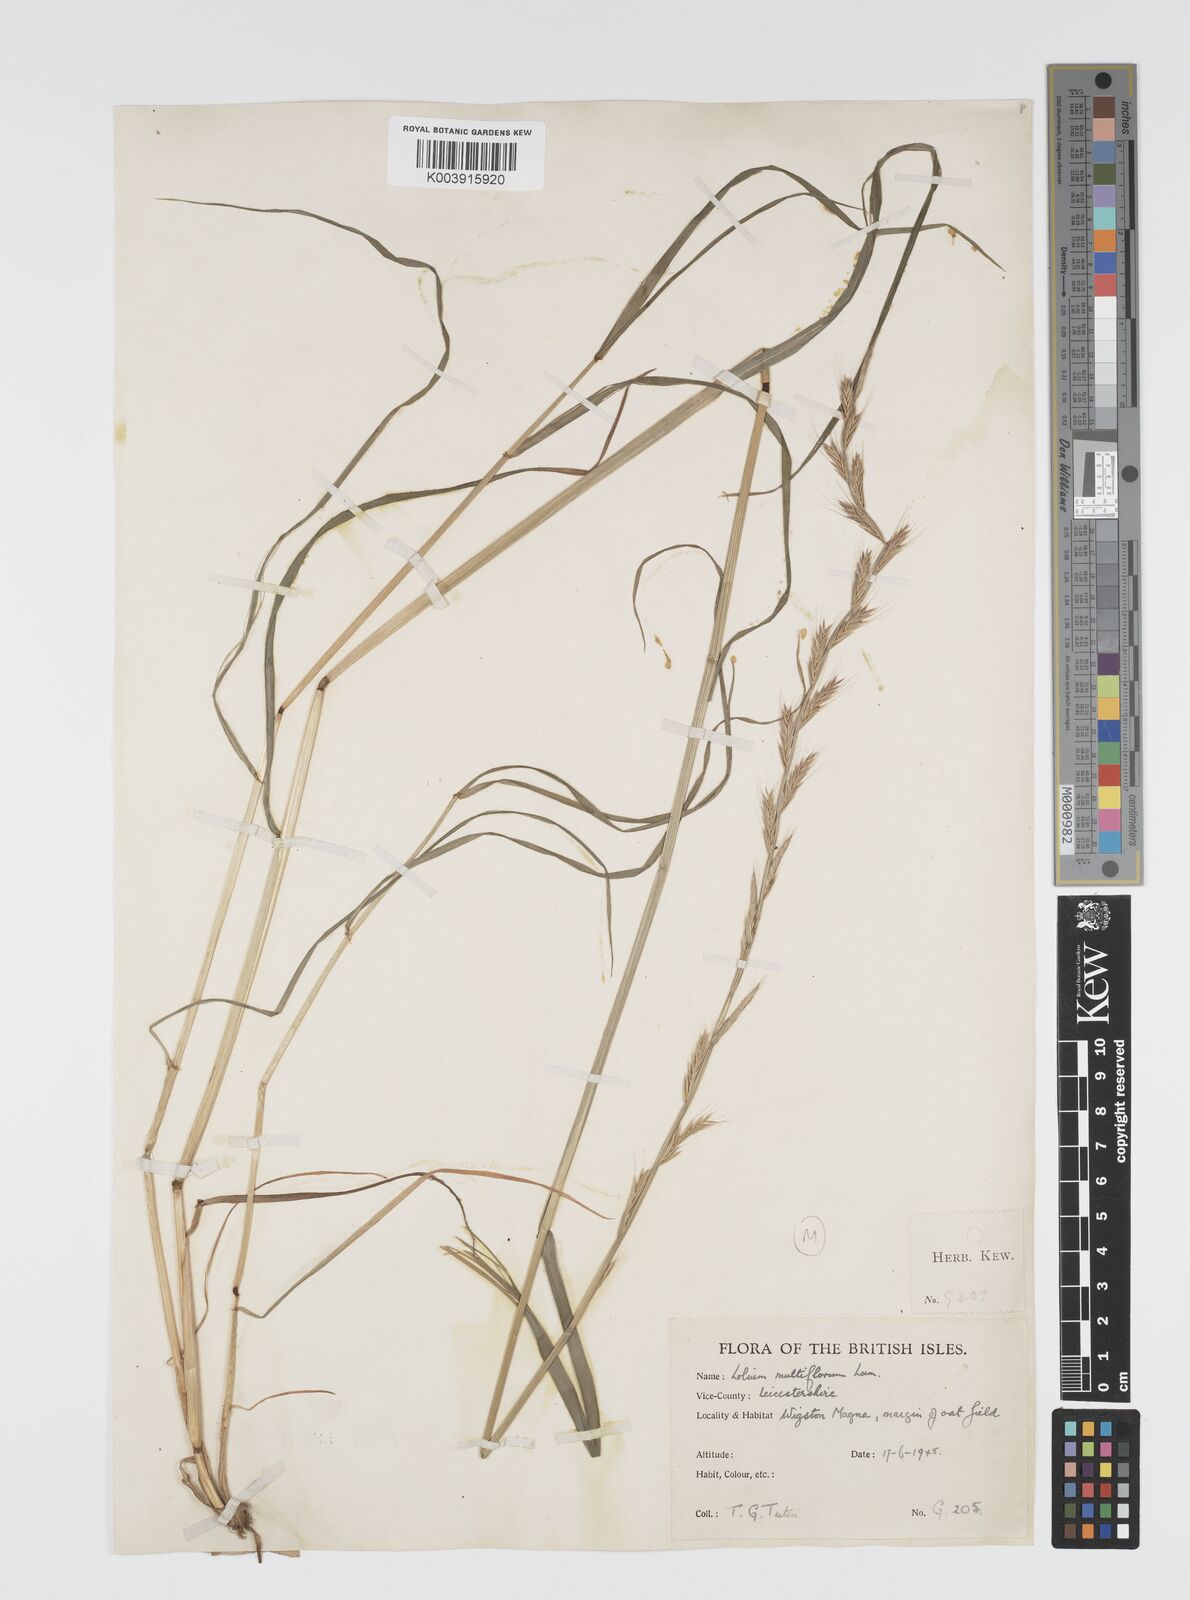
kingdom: Plantae
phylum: Tracheophyta
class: Liliopsida
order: Poales
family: Poaceae
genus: Lolium
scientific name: Lolium multiflorum
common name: Annual ryegrass
